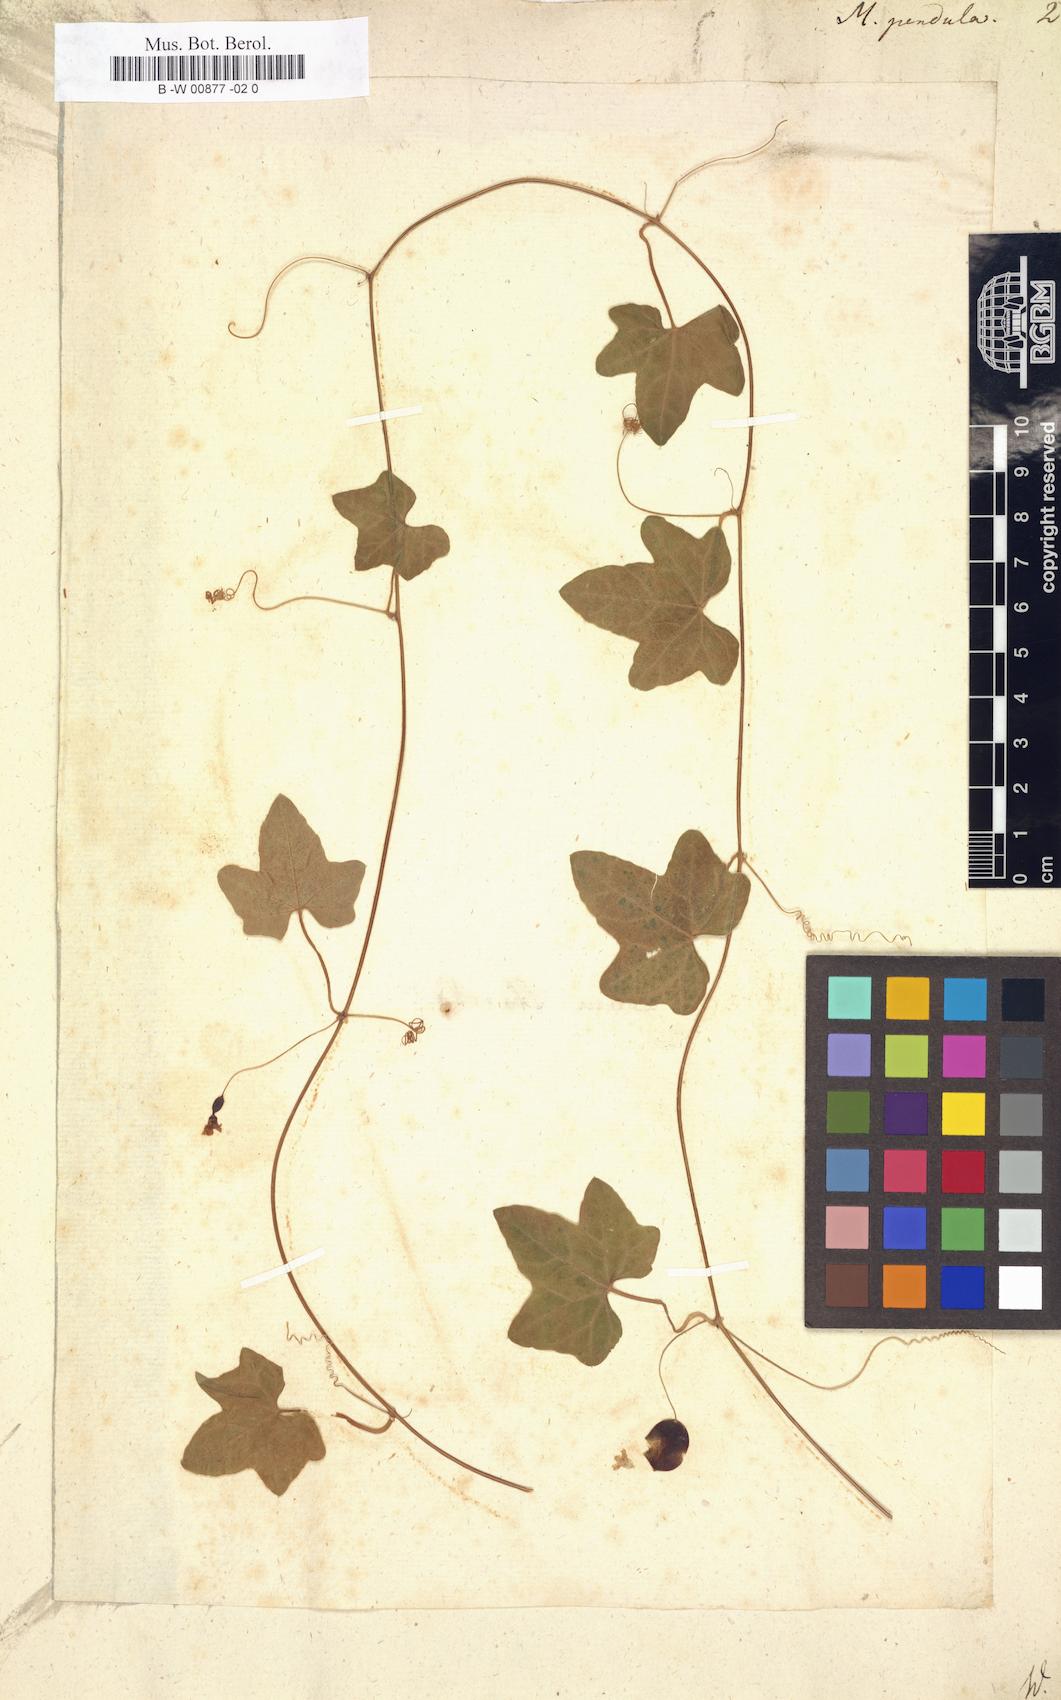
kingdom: Plantae
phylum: Tracheophyta
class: Magnoliopsida
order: Cucurbitales
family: Cucurbitaceae
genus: Melothria
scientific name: Melothria pendula
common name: Creeping-cucumber
